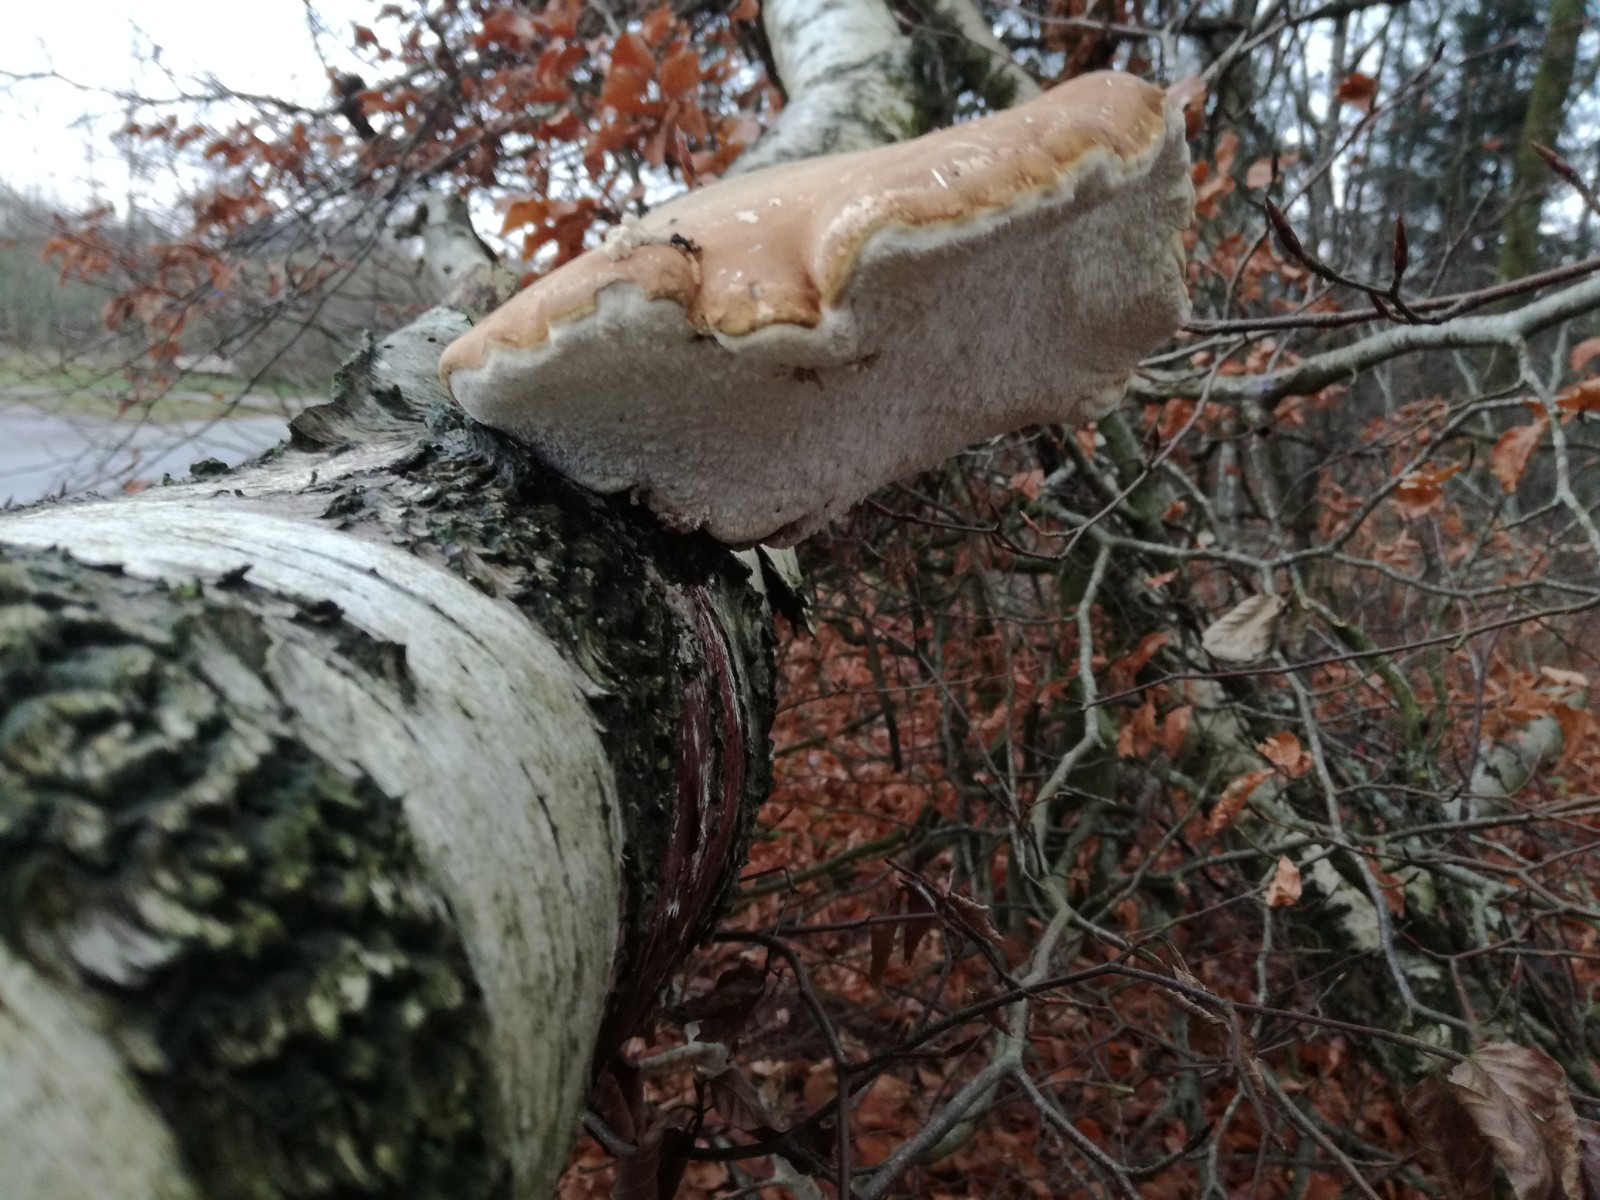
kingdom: Fungi
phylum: Basidiomycota
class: Agaricomycetes
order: Polyporales
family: Fomitopsidaceae
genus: Fomitopsis
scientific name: Fomitopsis betulina
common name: birkeporesvamp
